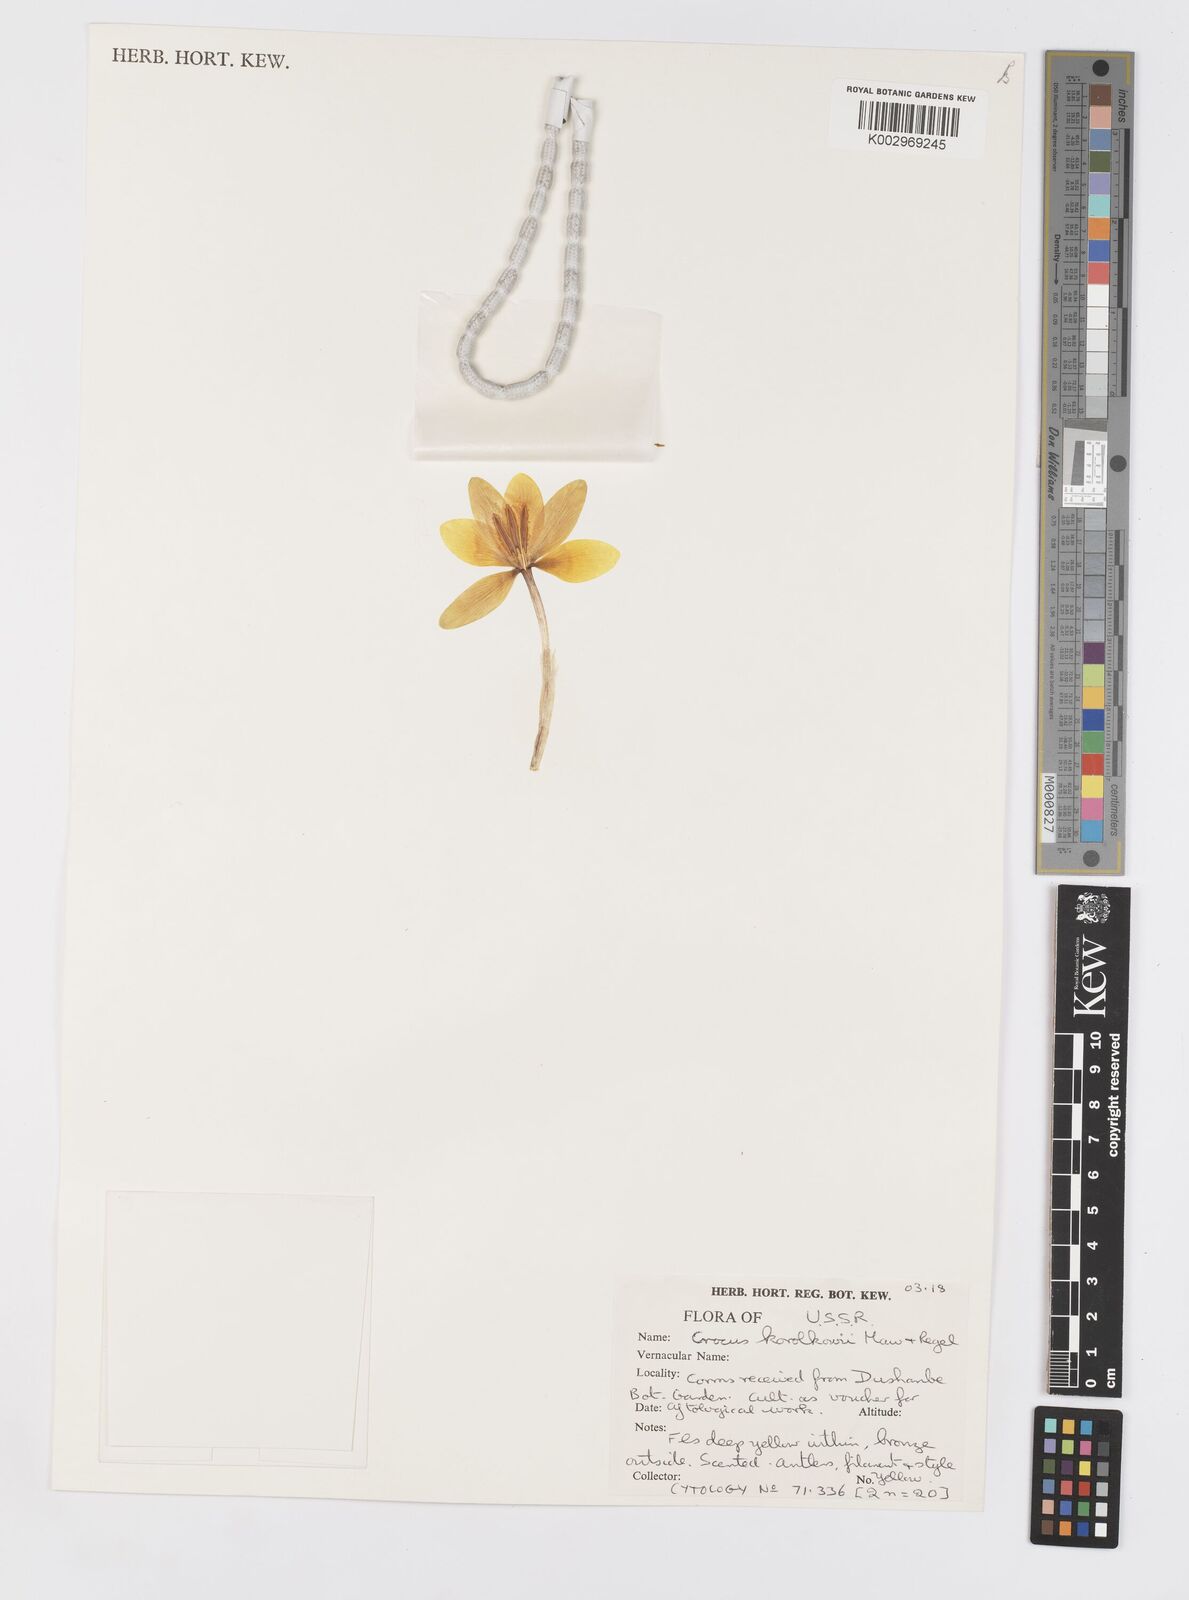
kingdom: Plantae
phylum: Tracheophyta
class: Liliopsida
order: Asparagales
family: Iridaceae
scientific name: Iridaceae
